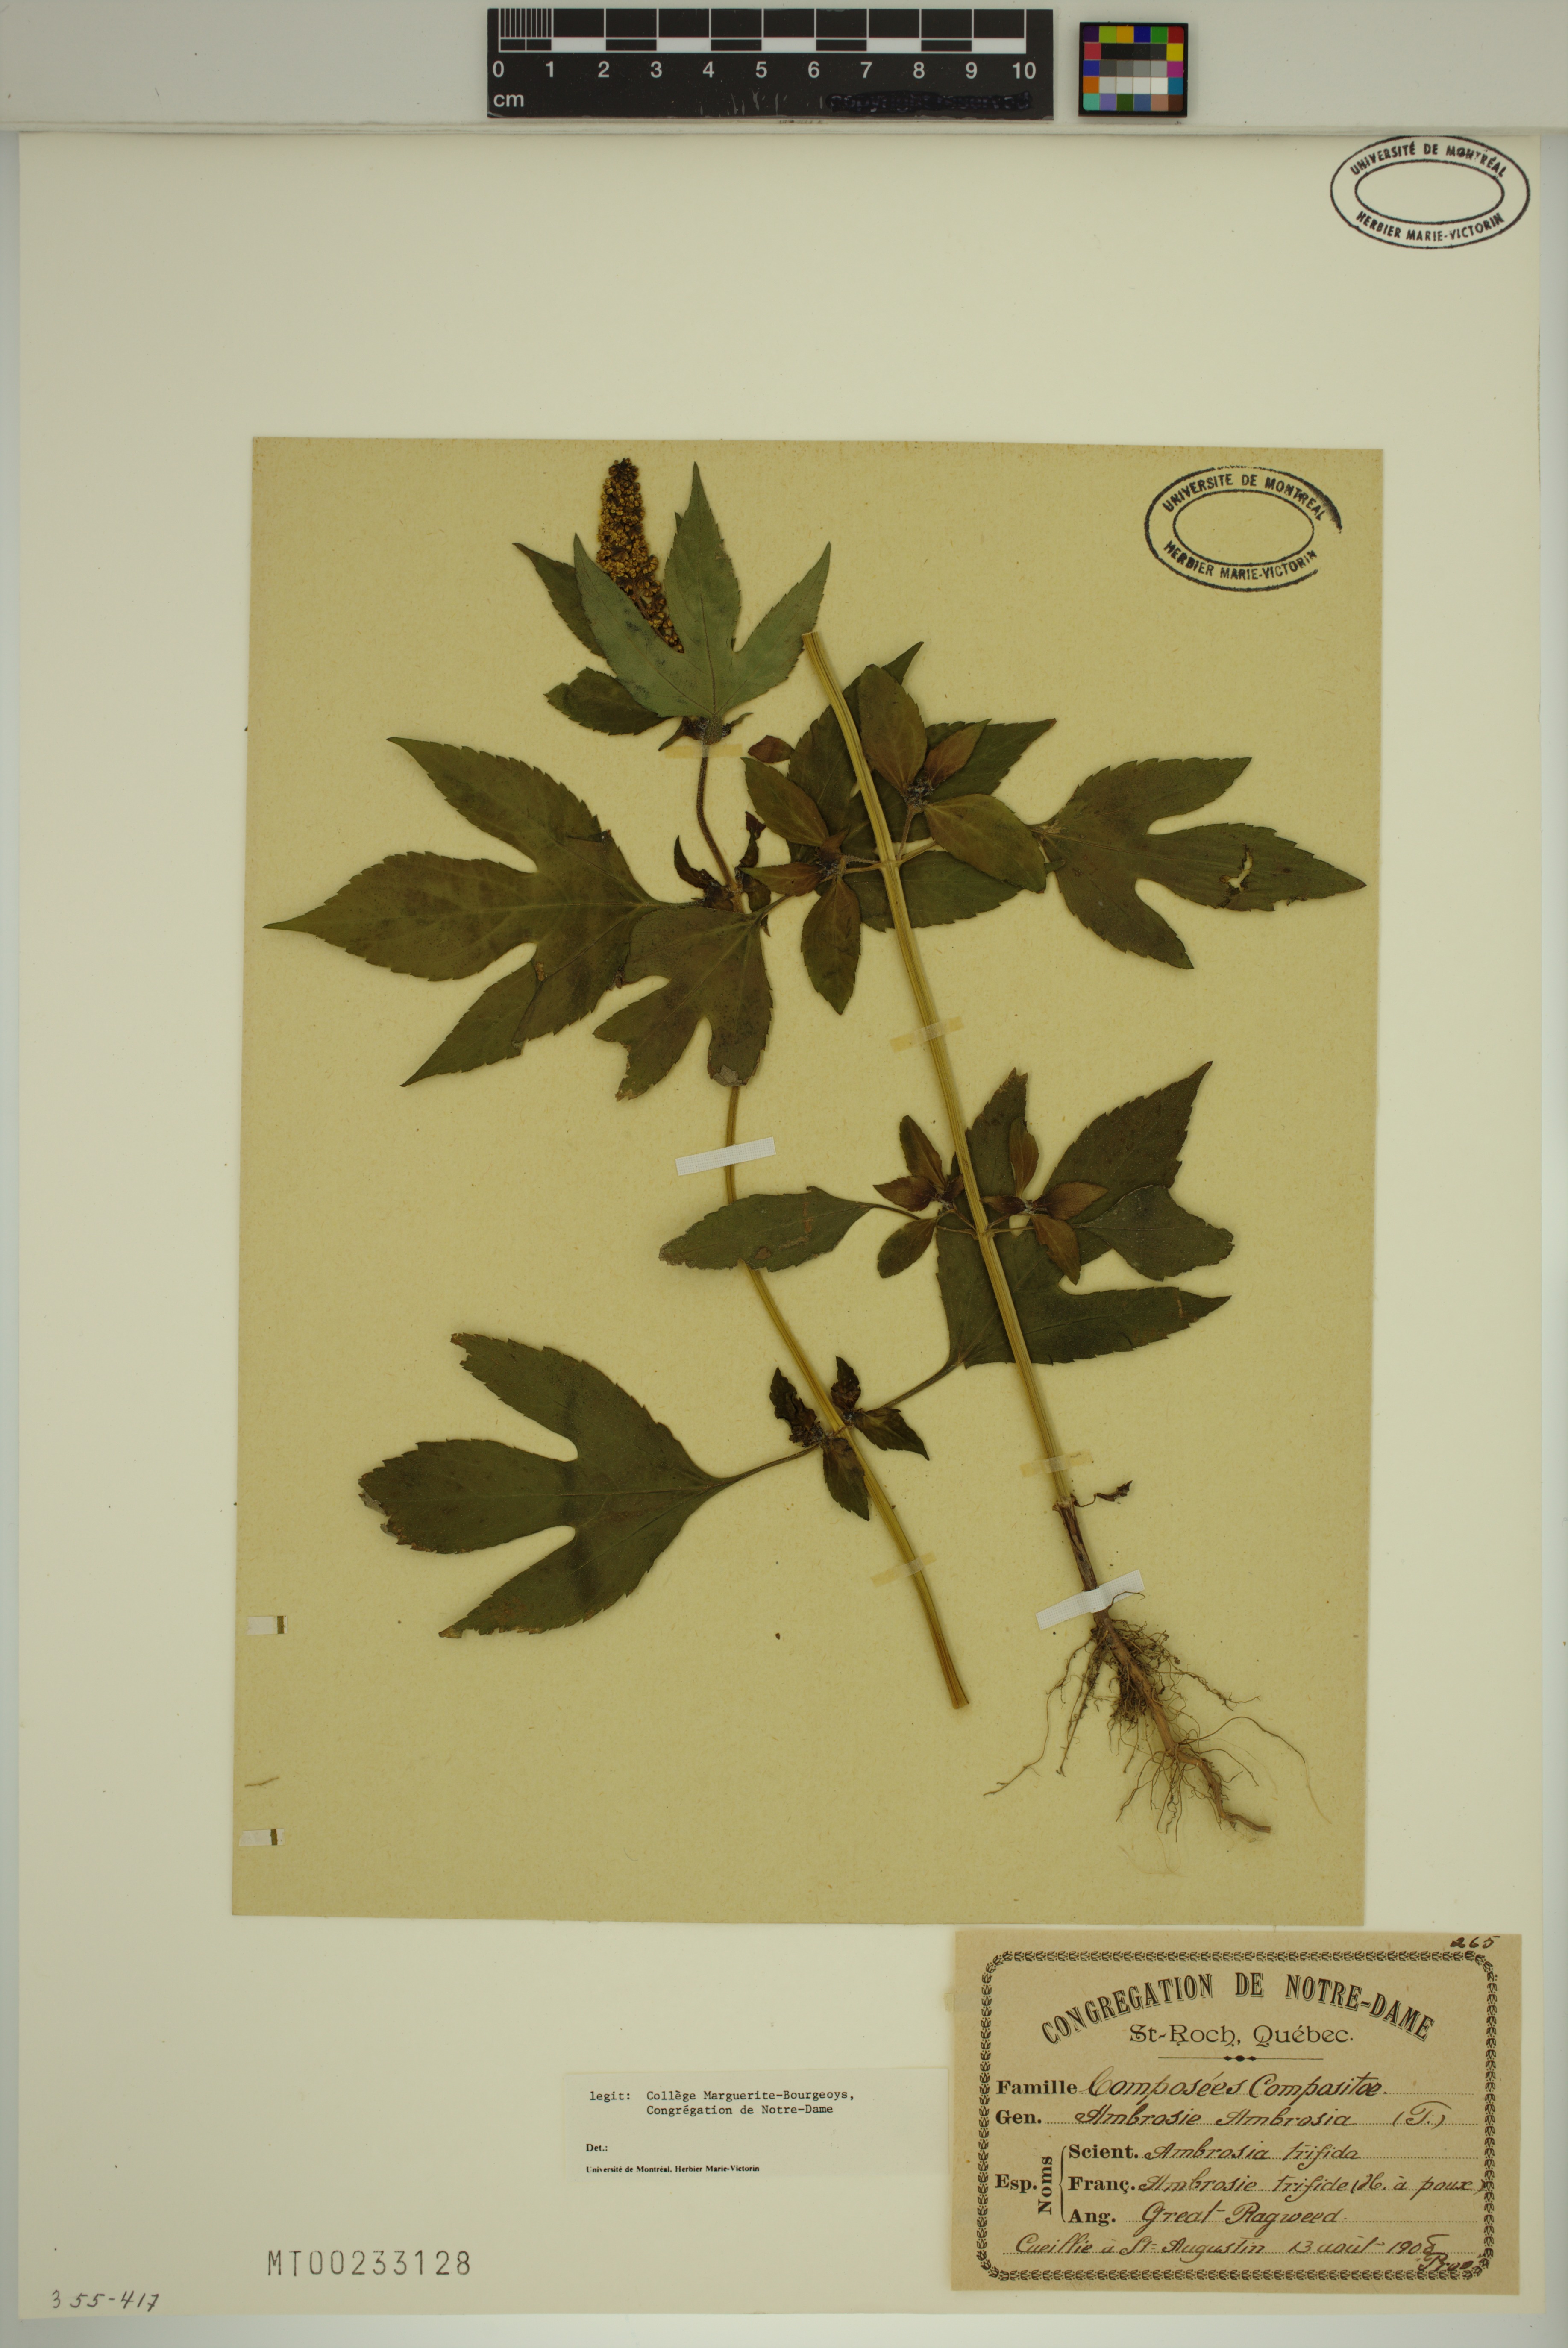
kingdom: Plantae
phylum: Tracheophyta
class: Magnoliopsida
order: Asterales
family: Asteraceae
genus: Ambrosia
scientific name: Ambrosia trifida
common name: Giant ragweed
